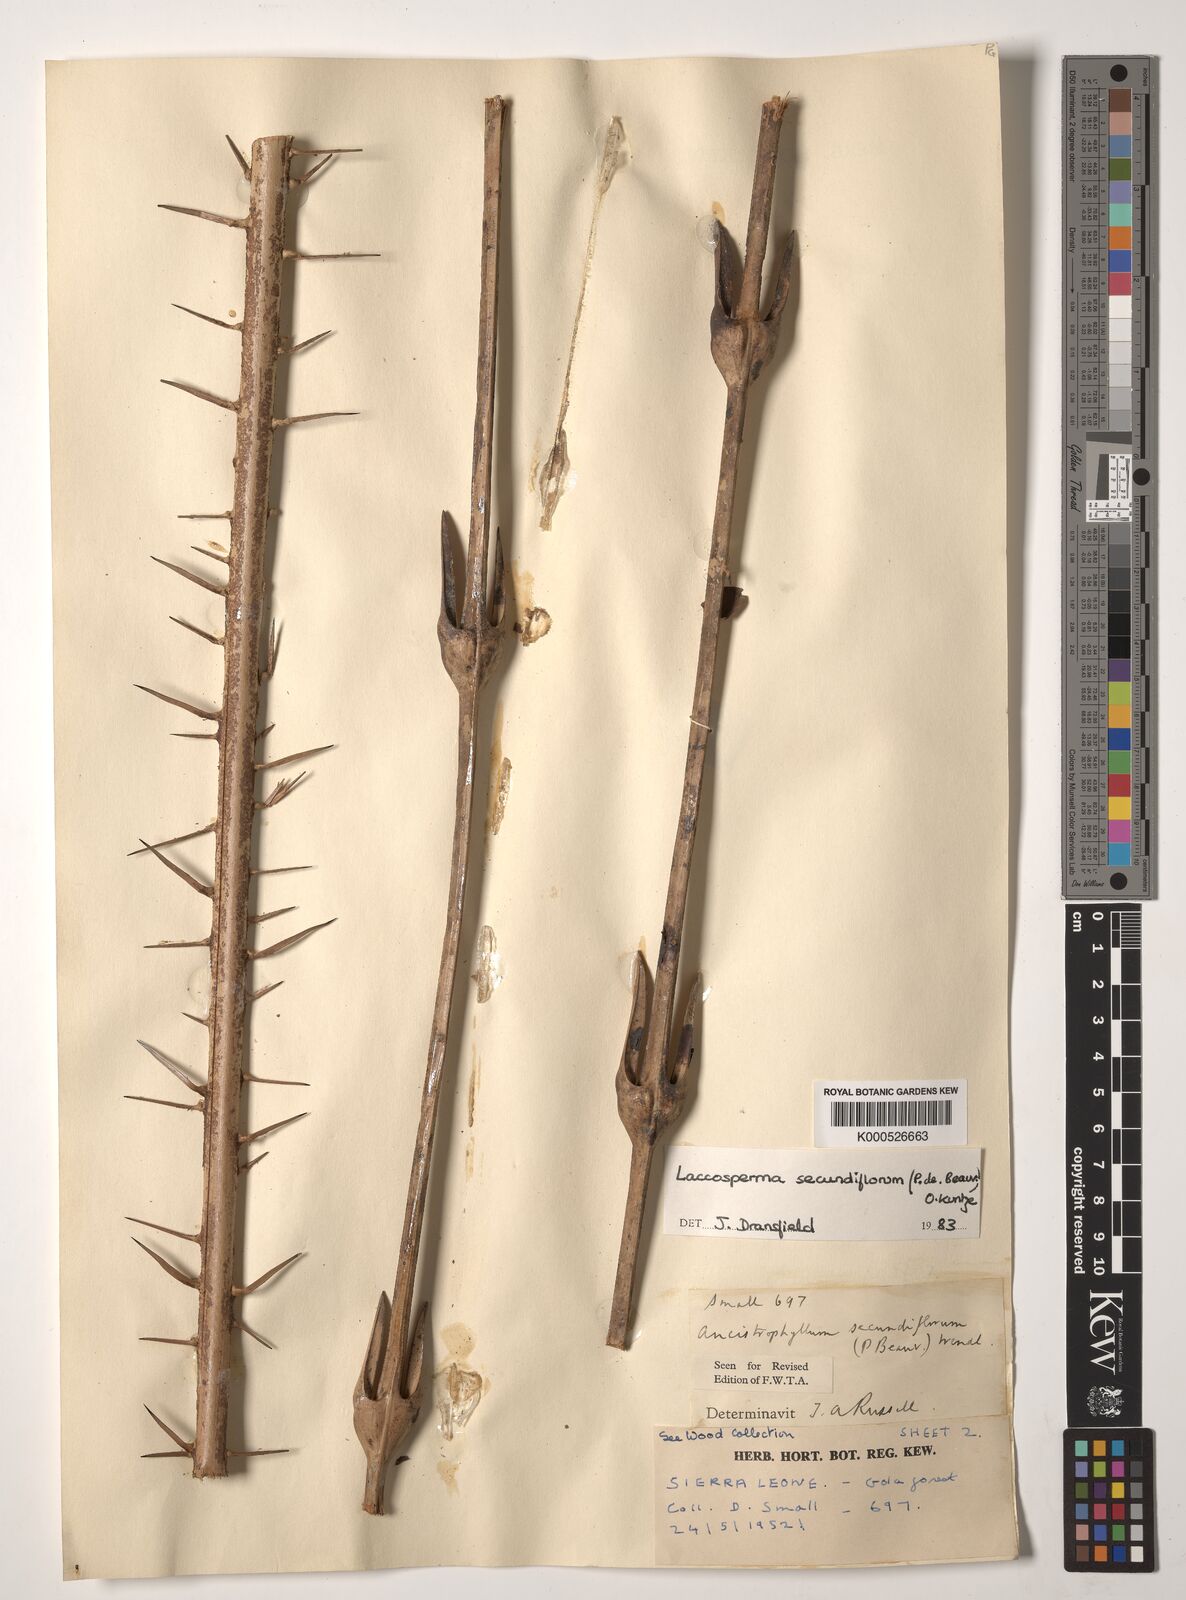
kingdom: Plantae
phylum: Tracheophyta
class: Liliopsida
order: Arecales
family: Arecaceae
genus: Laccosperma
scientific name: Laccosperma secundiflorum
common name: Rattan
